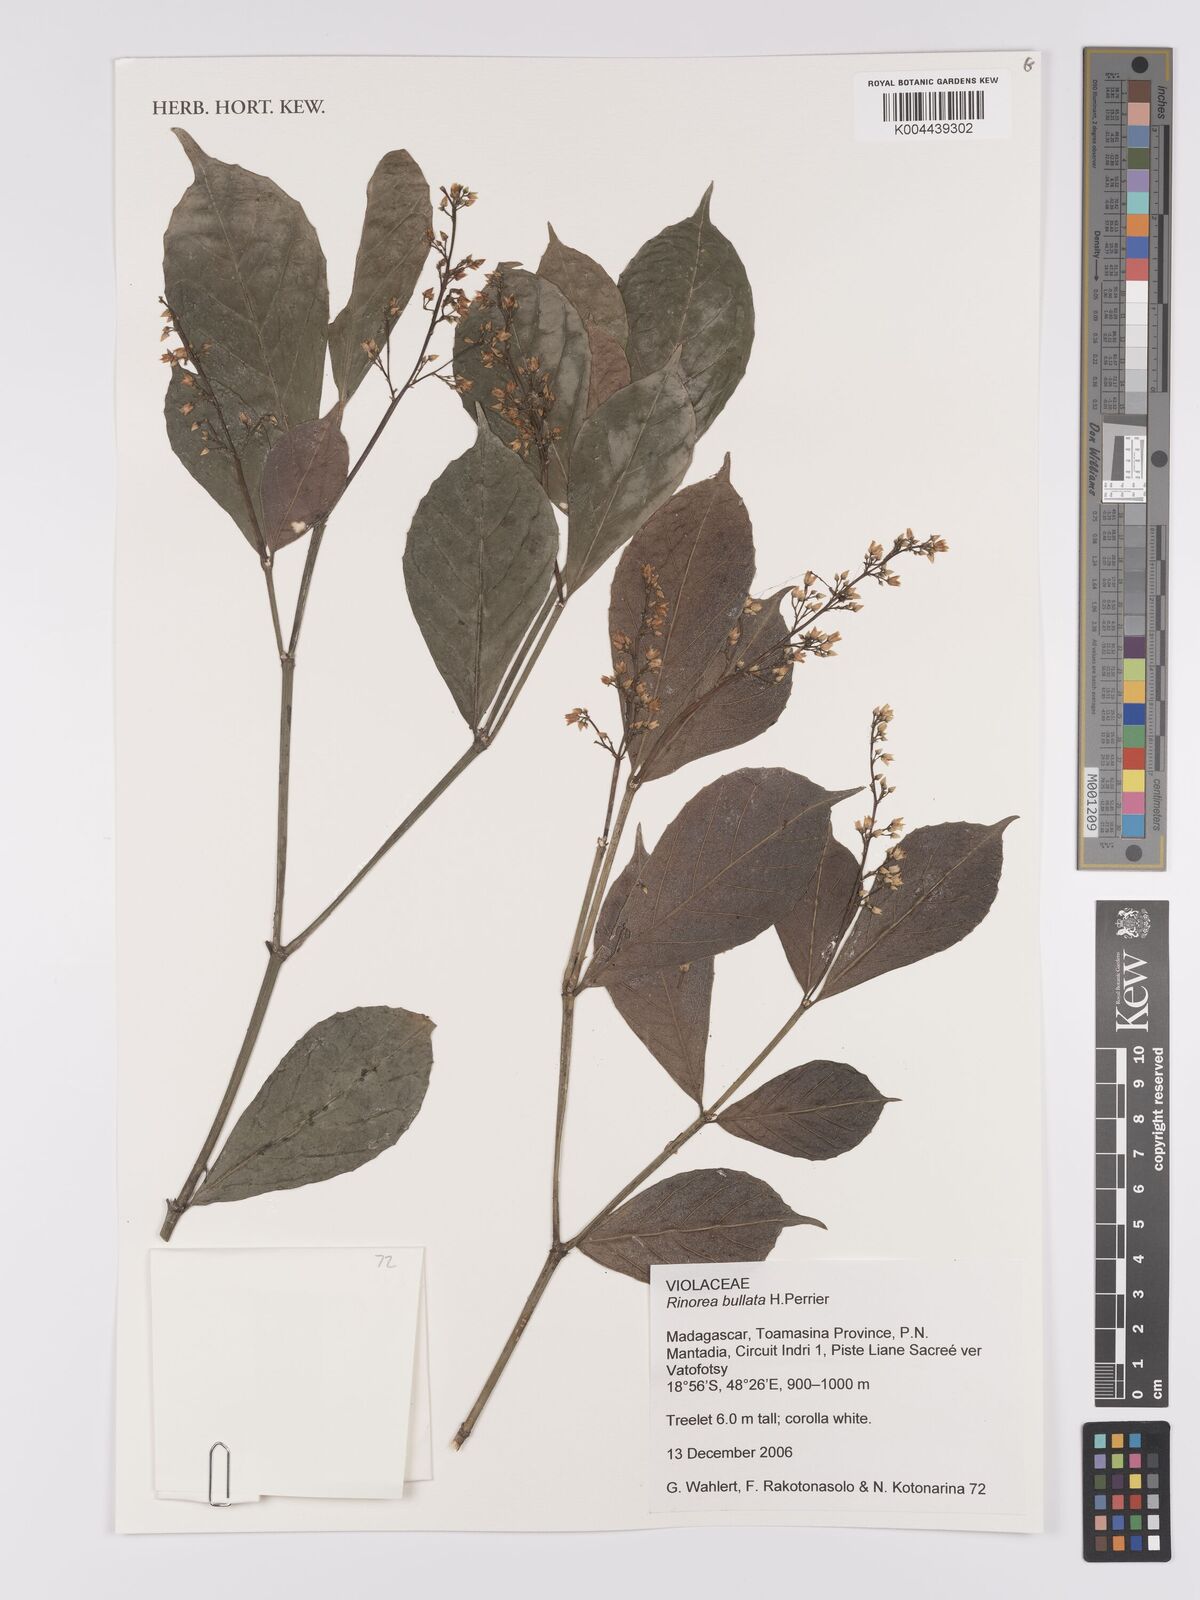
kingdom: Plantae
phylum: Tracheophyta
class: Magnoliopsida
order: Malpighiales
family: Violaceae
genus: Rinorea
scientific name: Rinorea bullata
